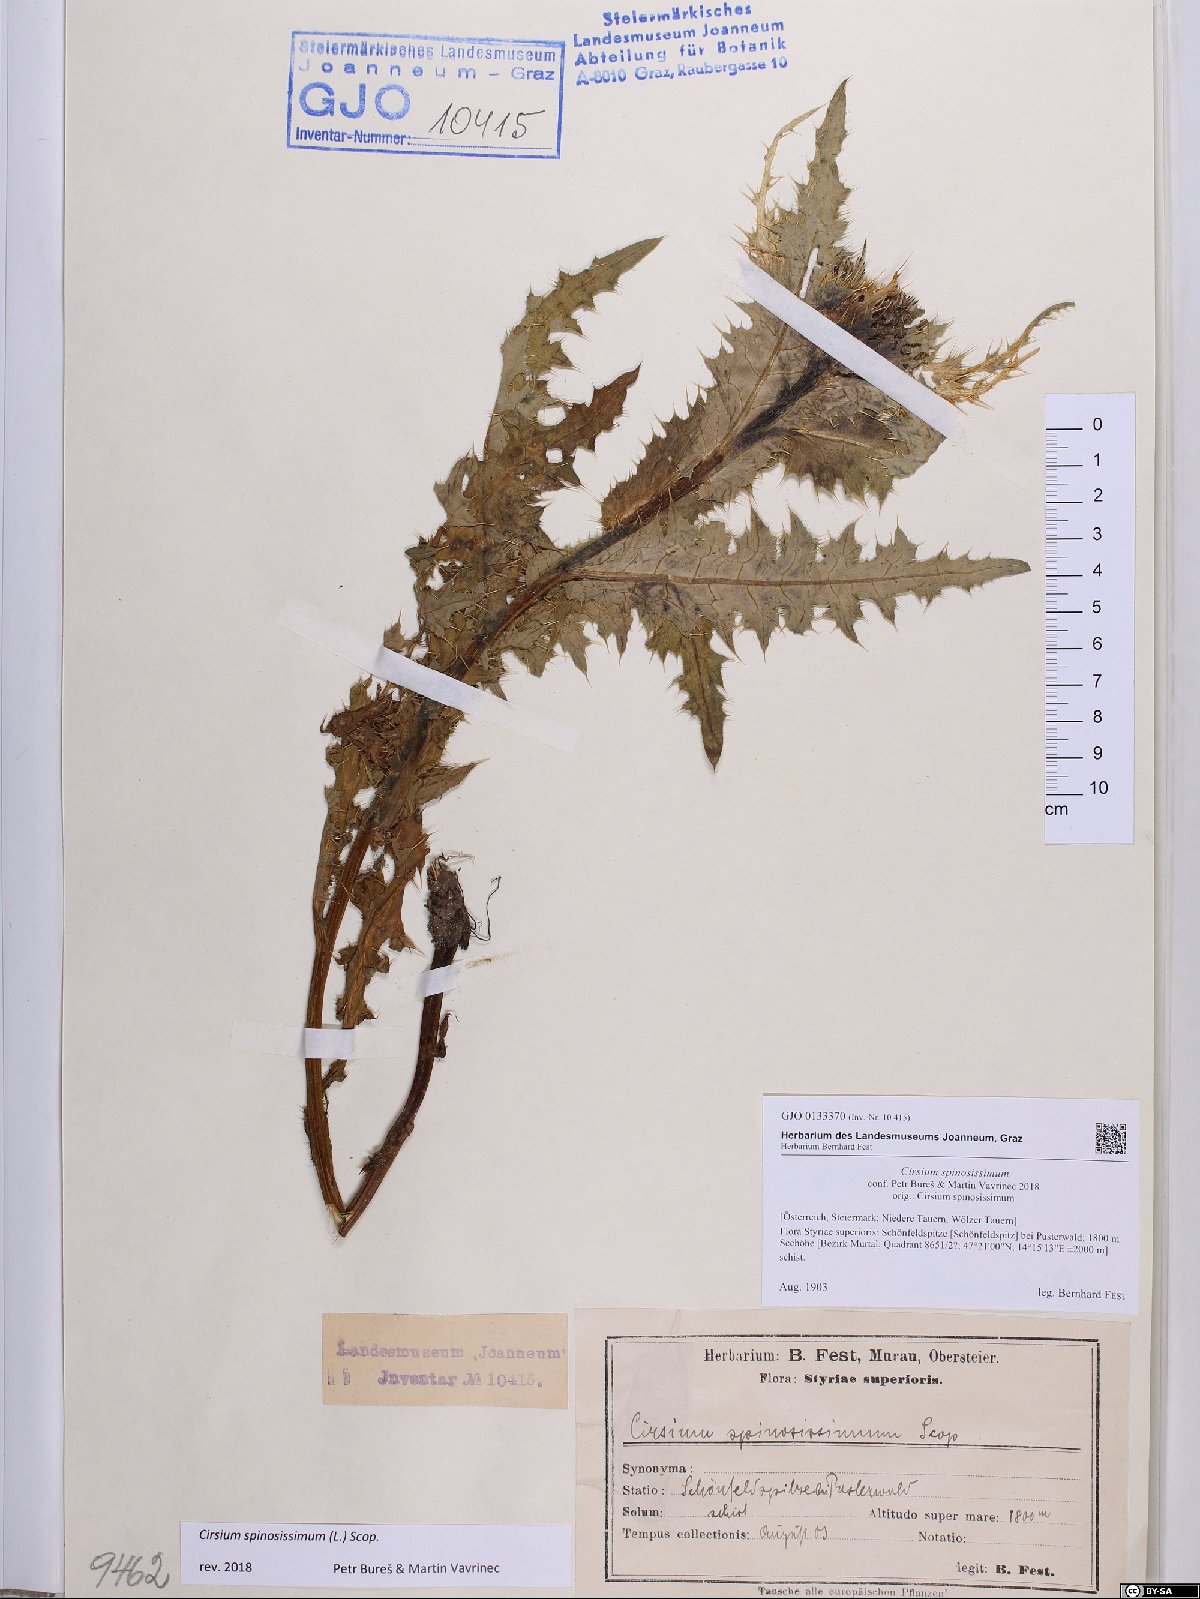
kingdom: Plantae
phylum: Tracheophyta
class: Magnoliopsida
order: Asterales
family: Asteraceae
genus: Cirsium
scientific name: Cirsium spinosissimum
